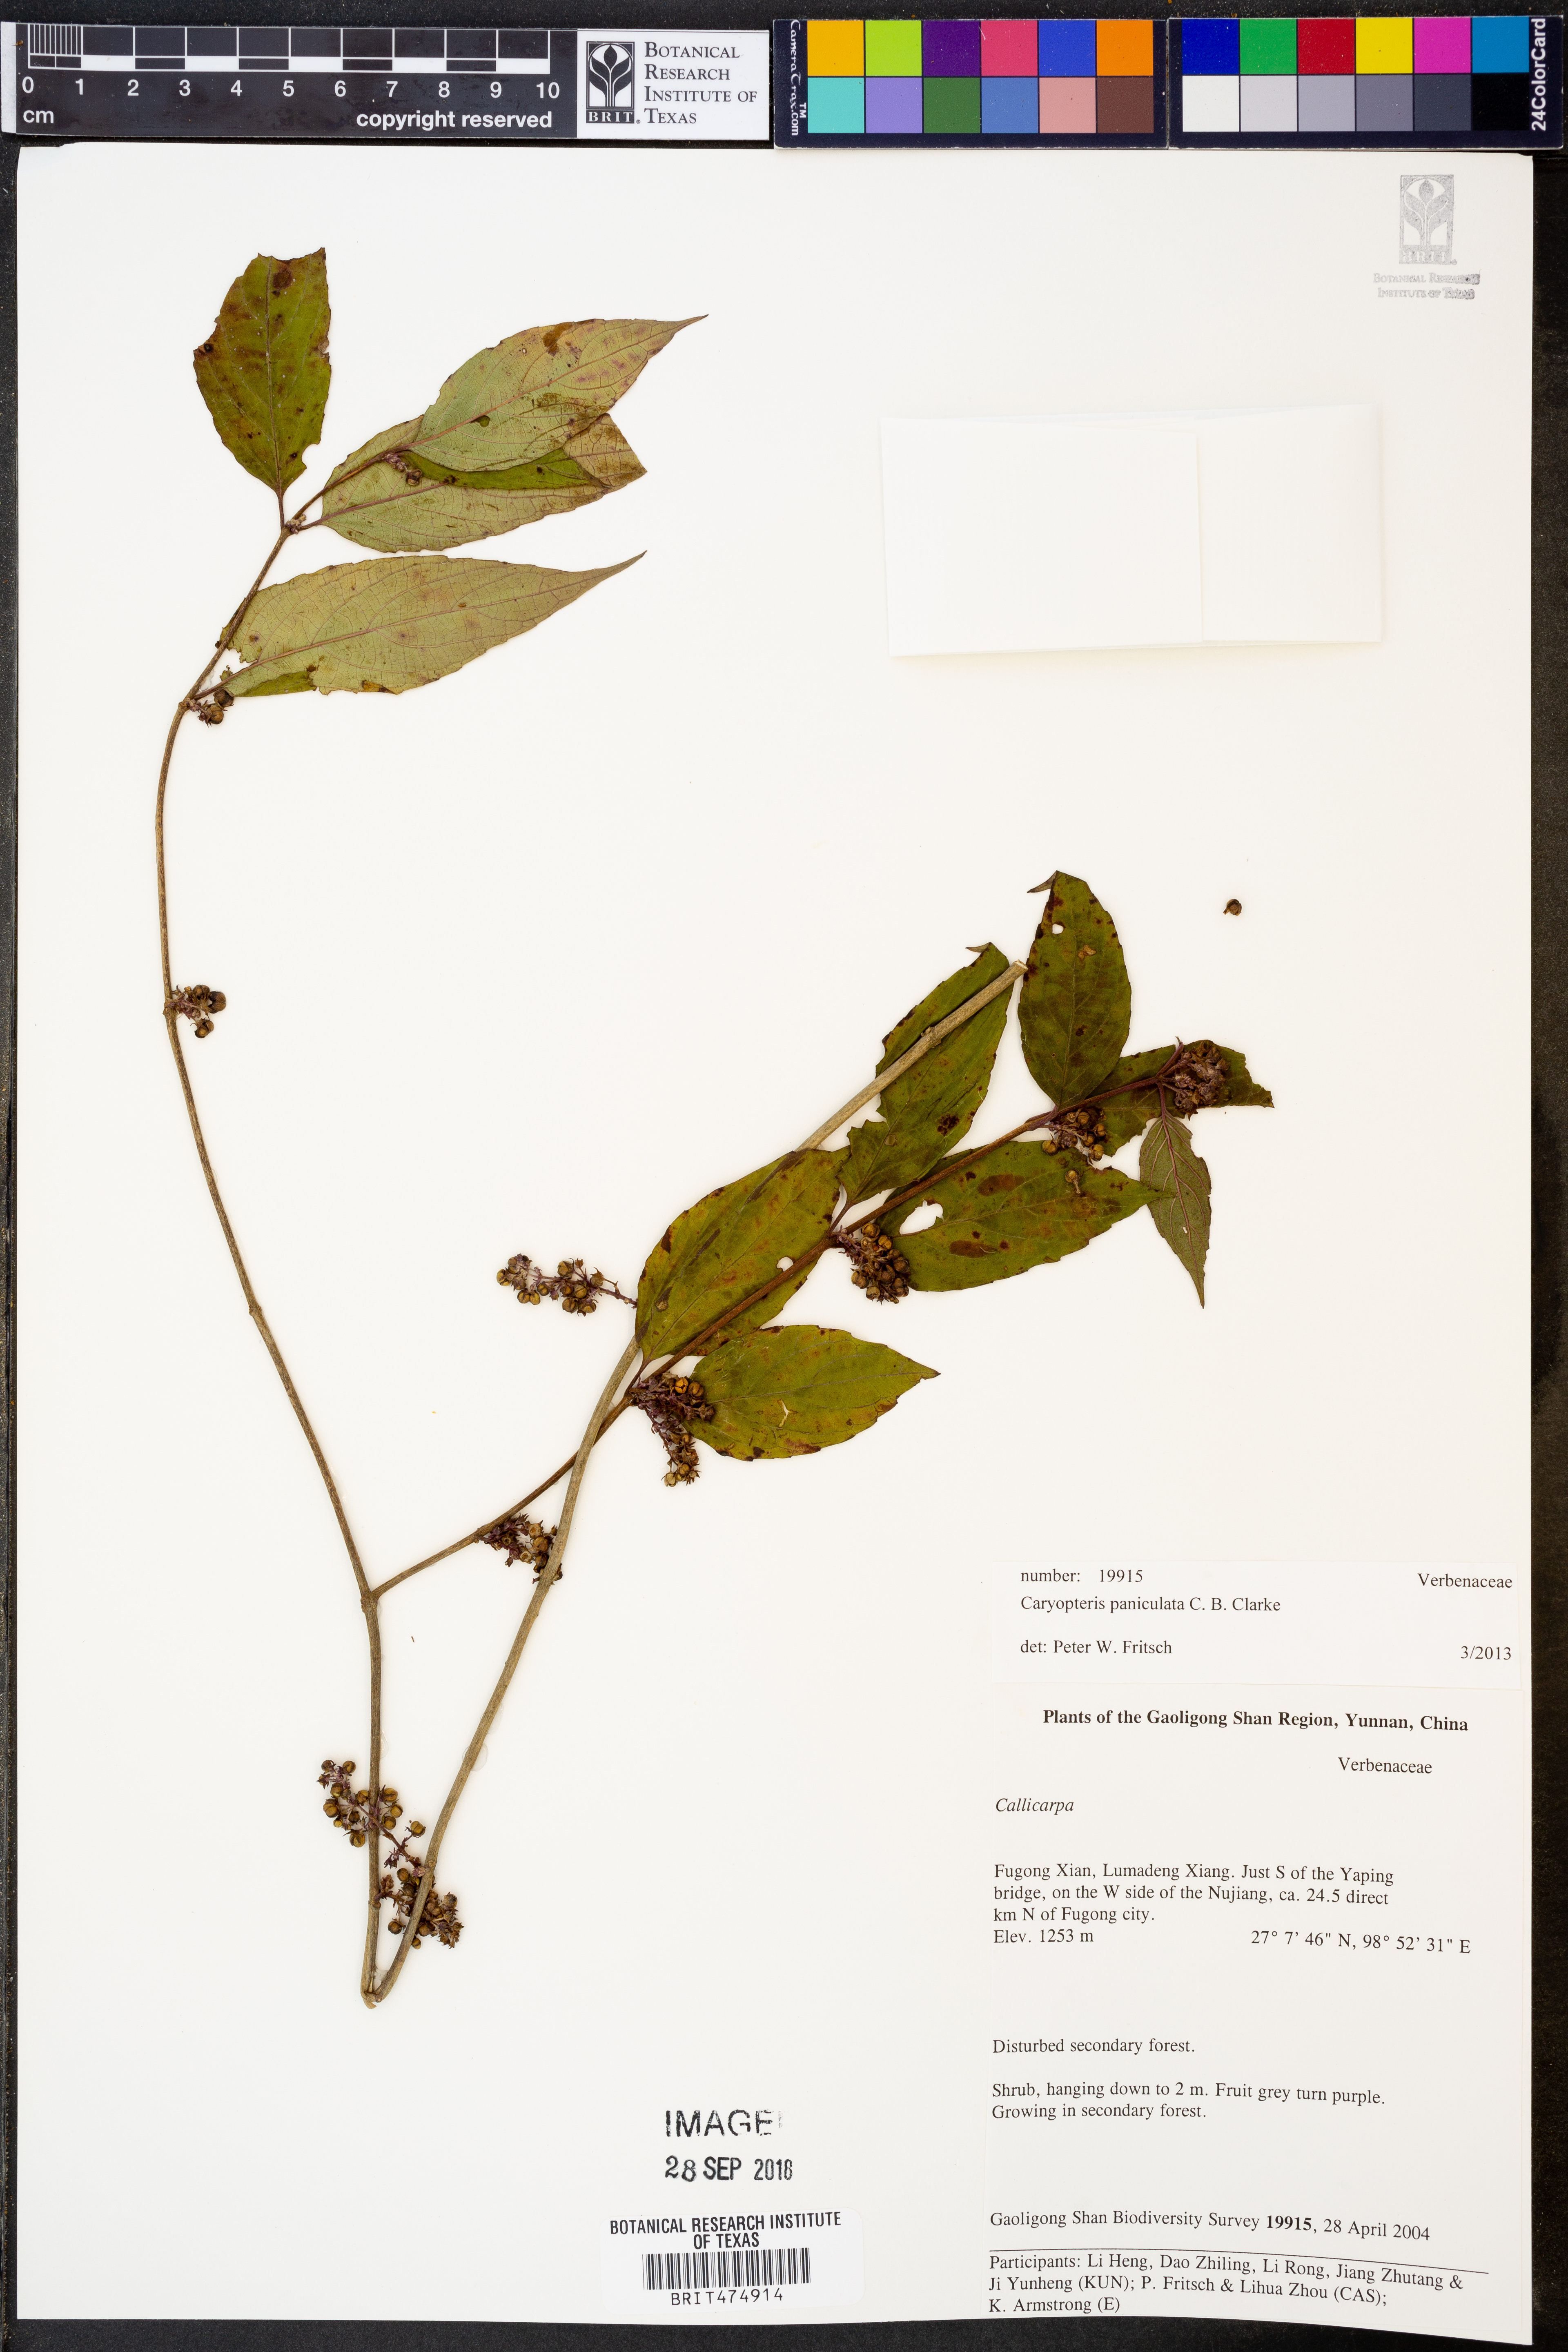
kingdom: Plantae
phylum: Tracheophyta
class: Magnoliopsida
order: Lamiales
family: Lamiaceae
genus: Pseudocaryopteris
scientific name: Pseudocaryopteris foetida
